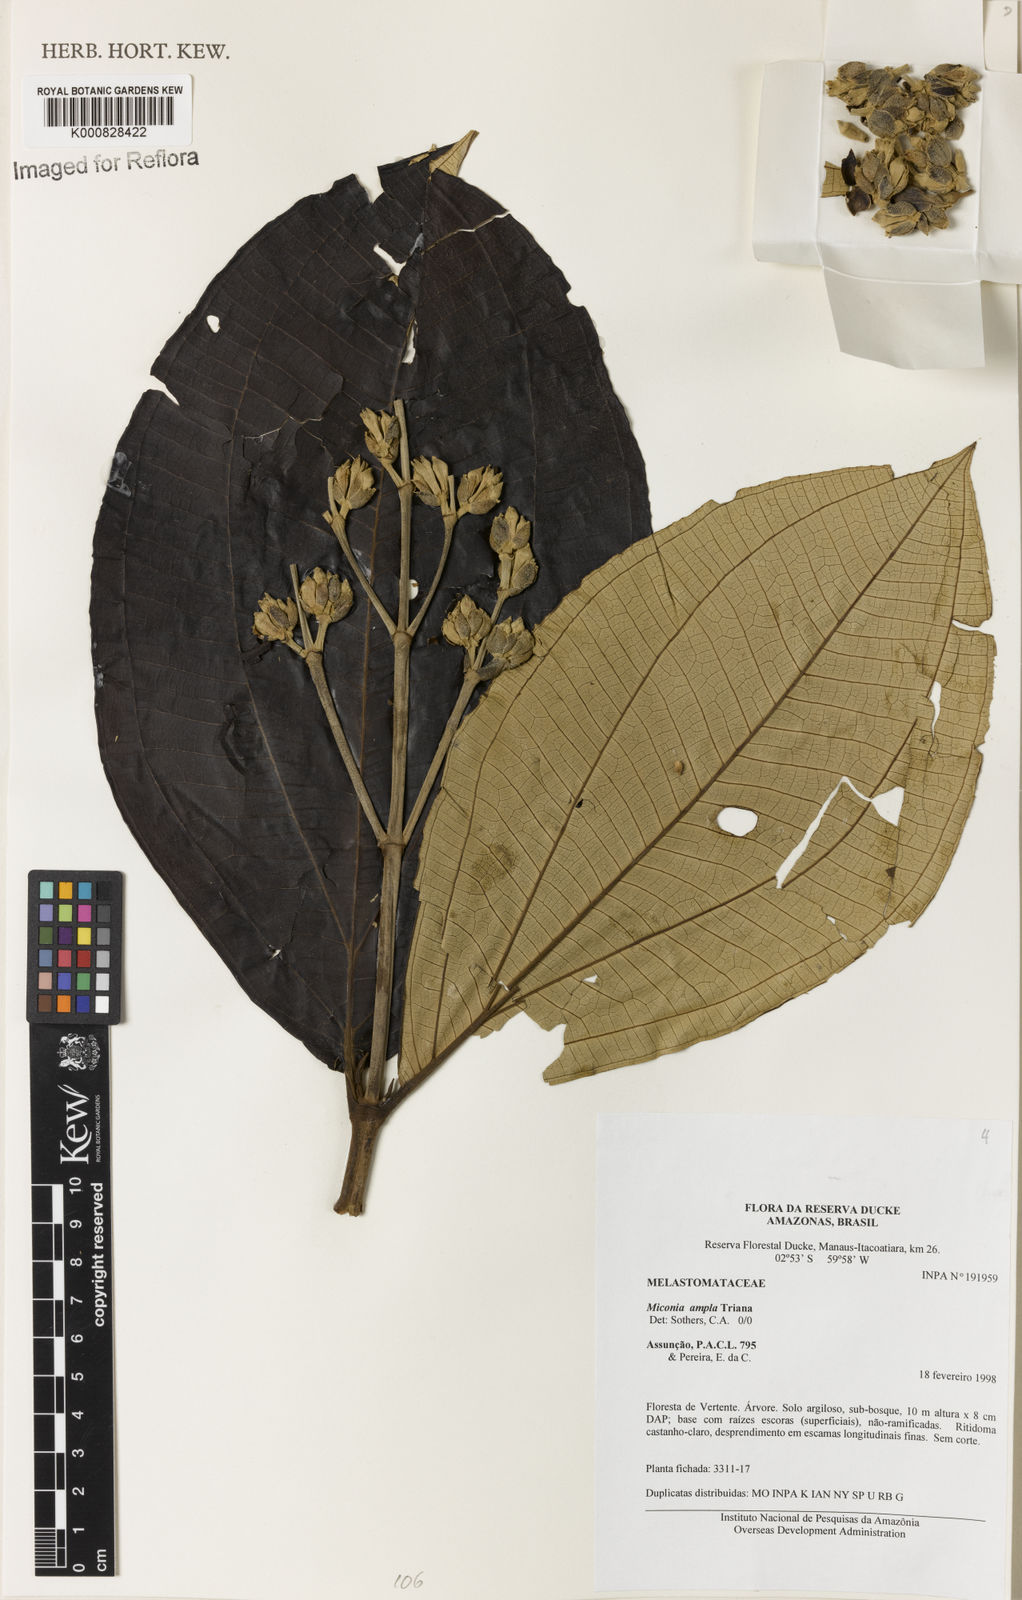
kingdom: Plantae
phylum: Tracheophyta
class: Magnoliopsida
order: Myrtales
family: Melastomataceae
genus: Miconia
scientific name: Miconia ampla
